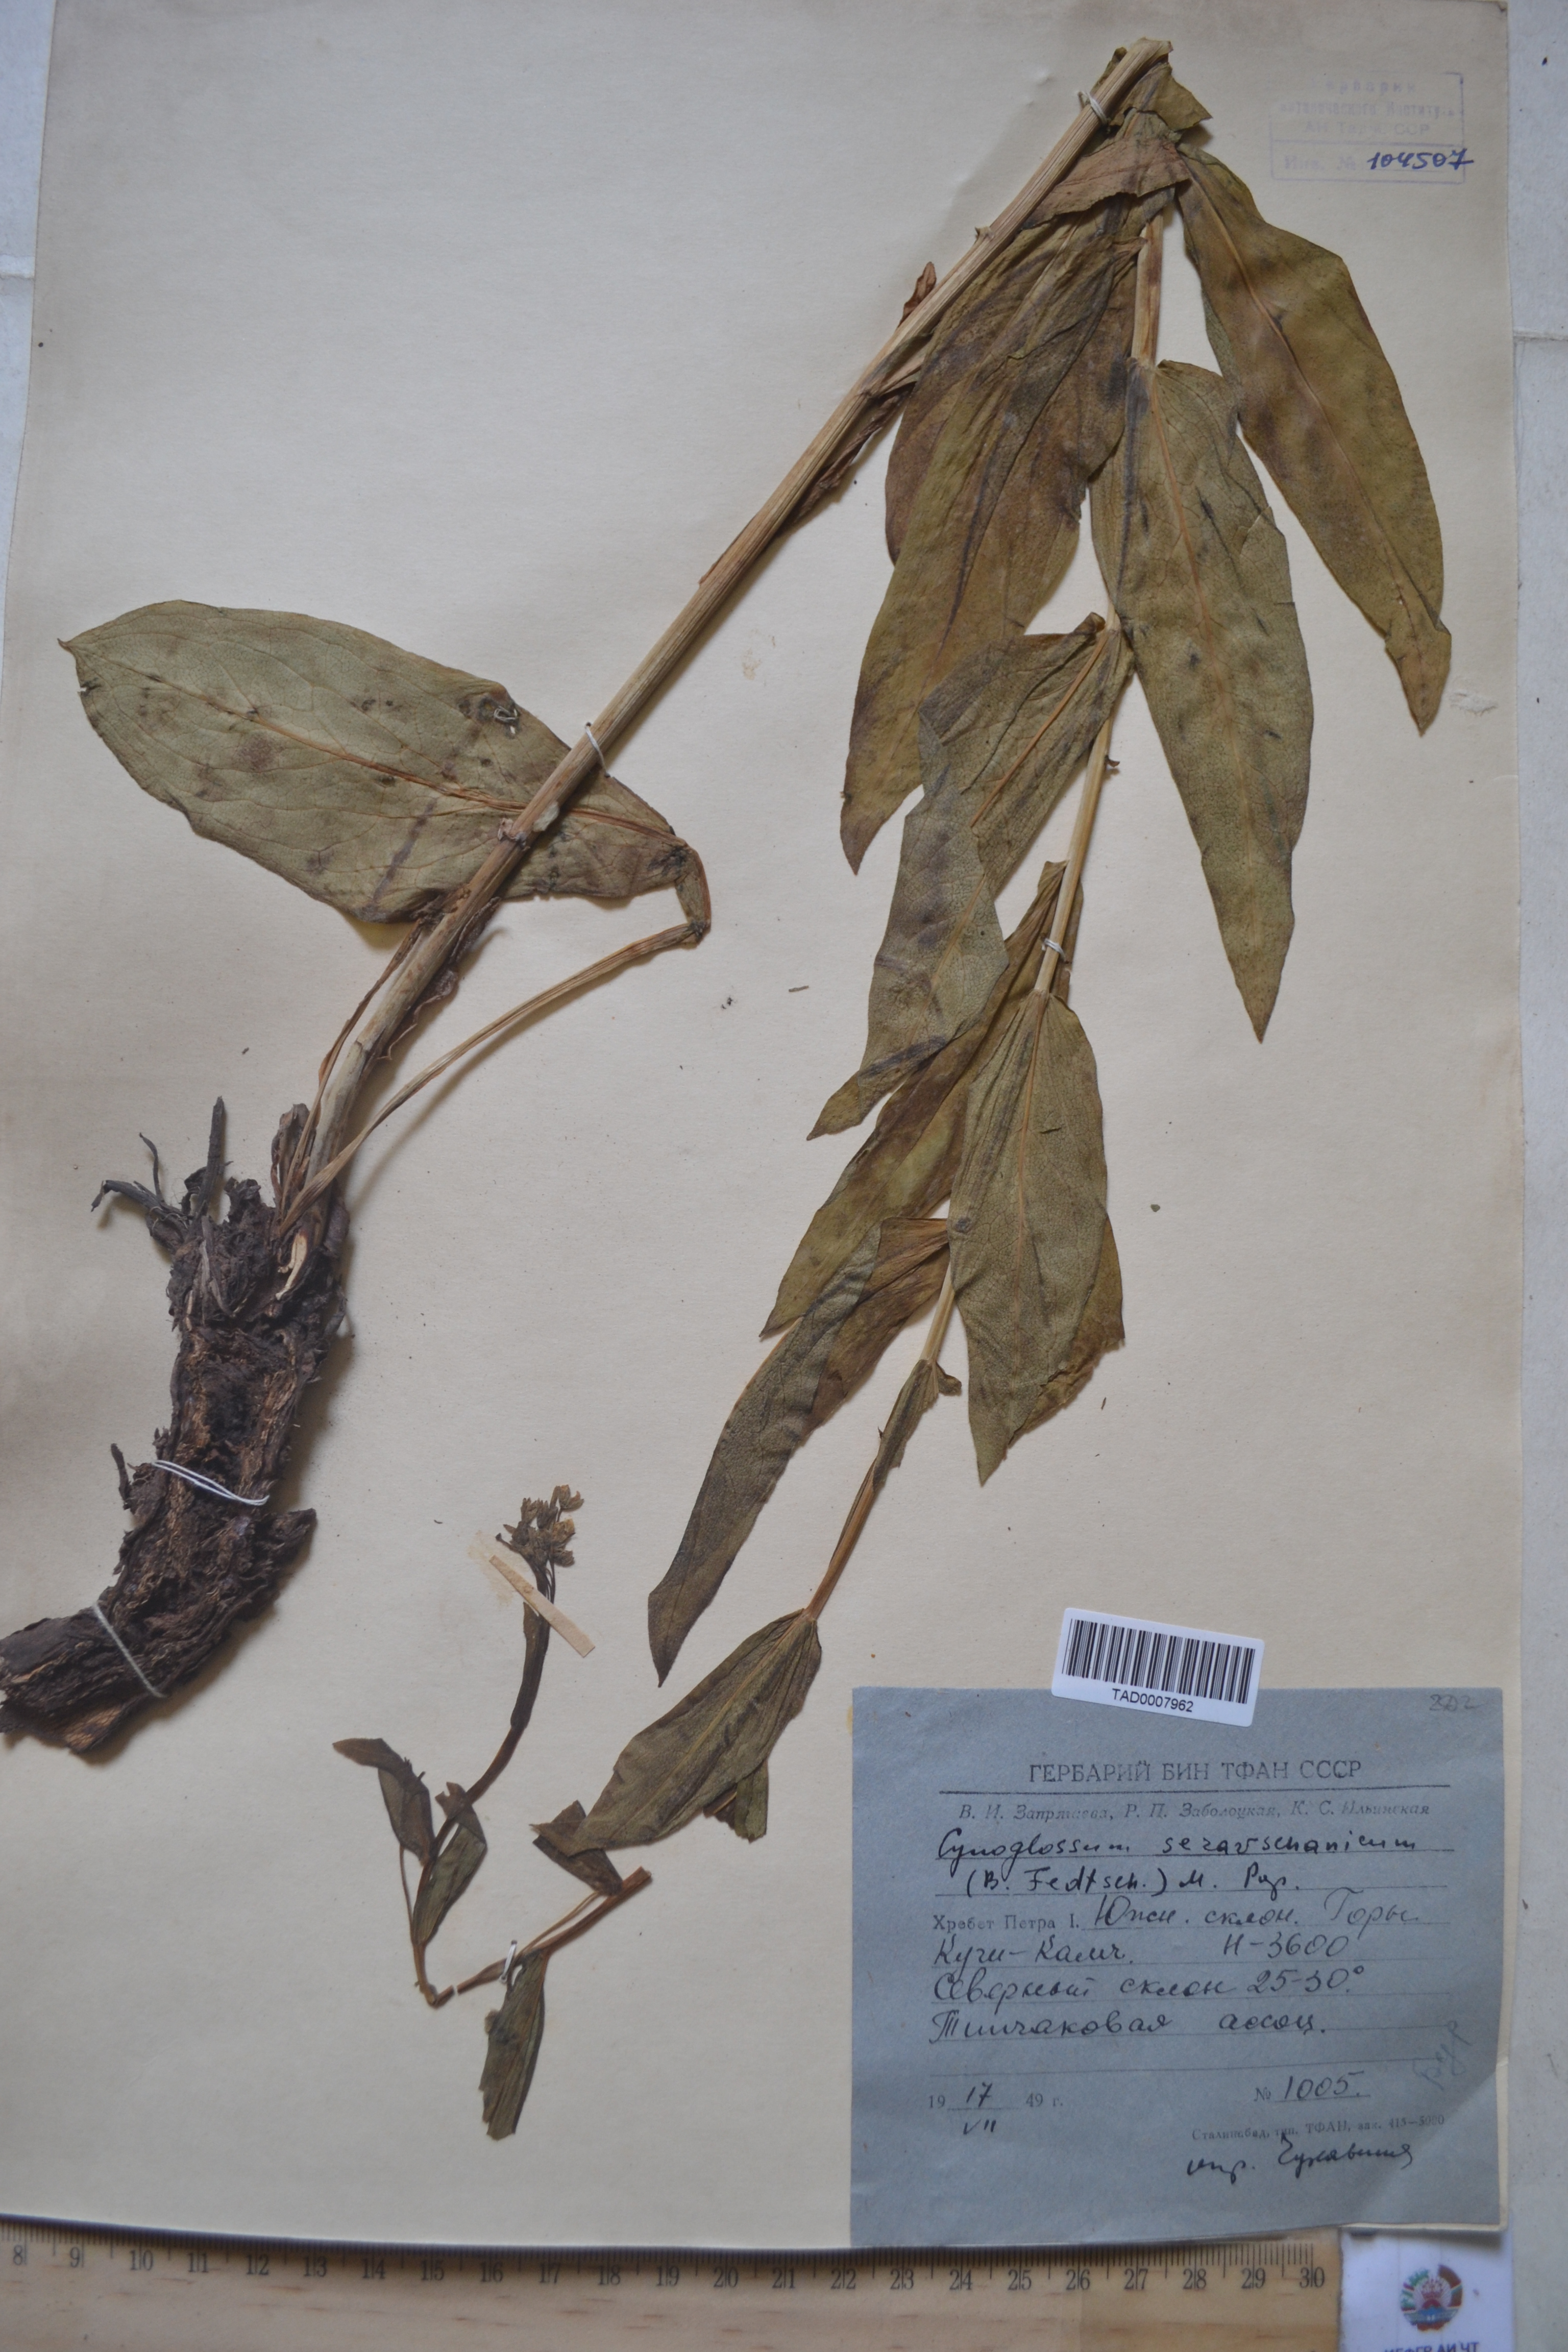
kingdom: Plantae
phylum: Tracheophyta
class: Magnoliopsida
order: Boraginales
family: Boraginaceae
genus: Cynoglossum
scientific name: Cynoglossum
